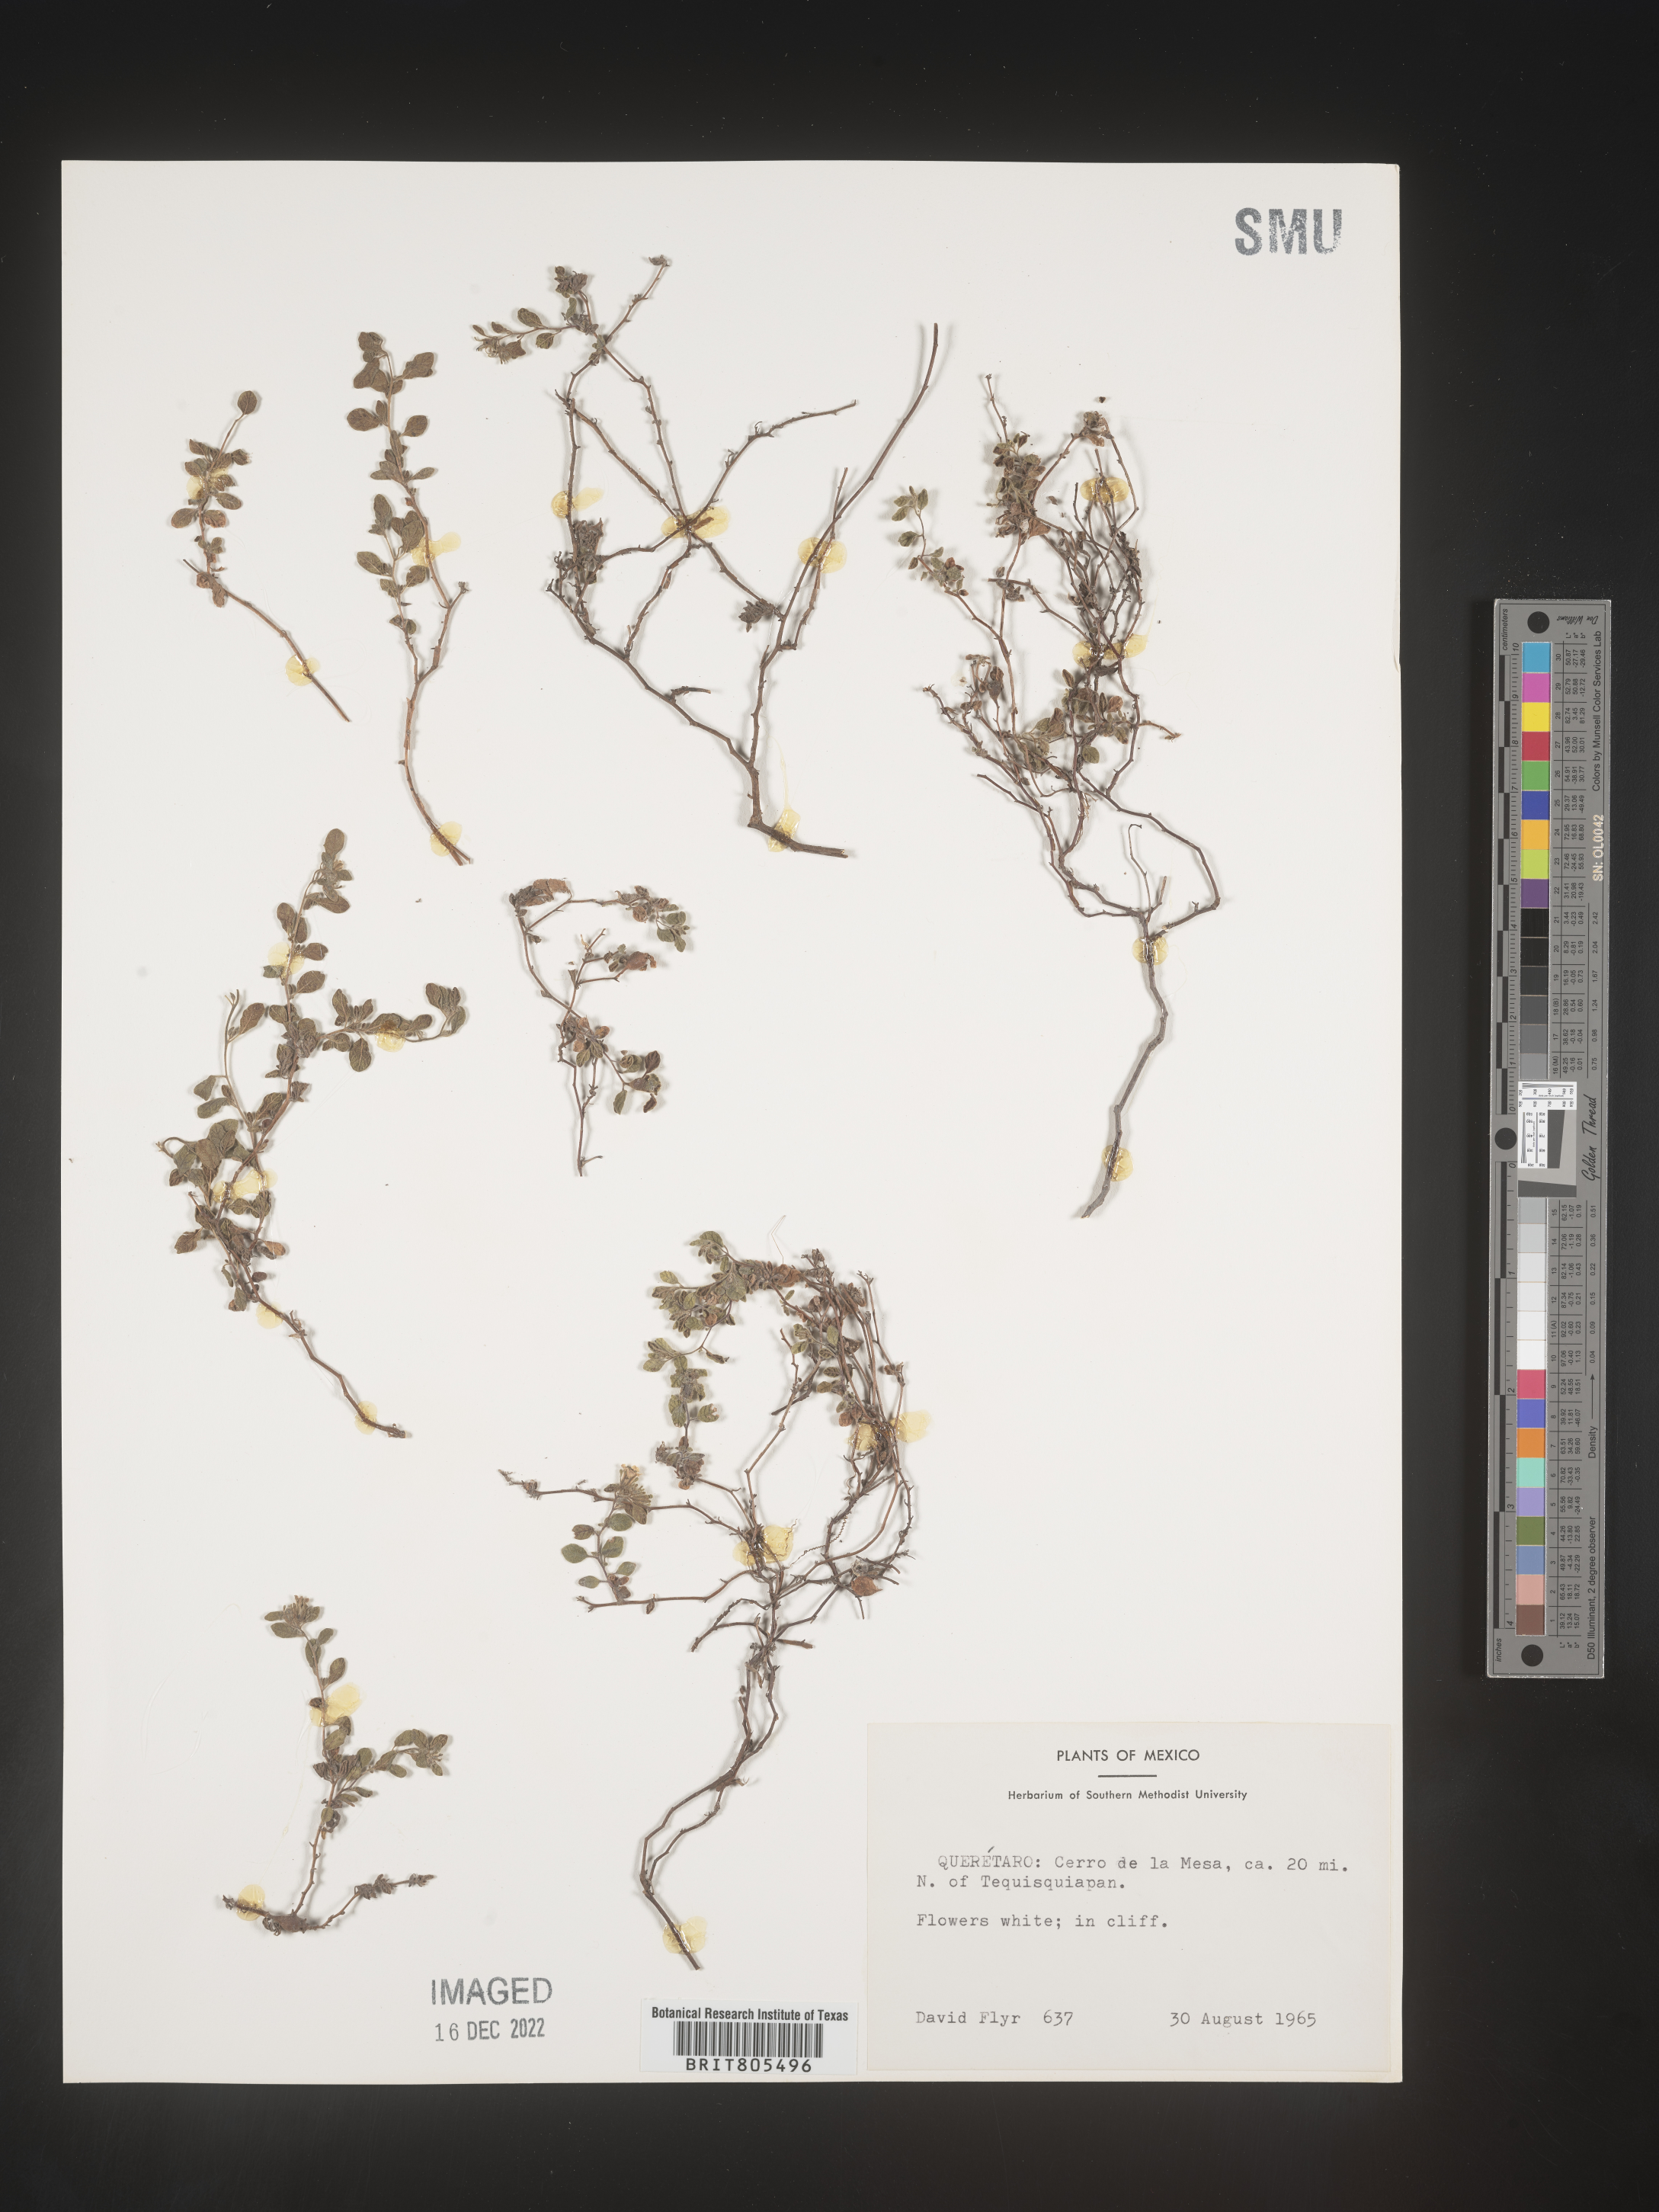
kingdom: Plantae
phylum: Tracheophyta
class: Magnoliopsida
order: Solanales
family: Convolvulaceae
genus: Ipomoea
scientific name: Ipomoea
